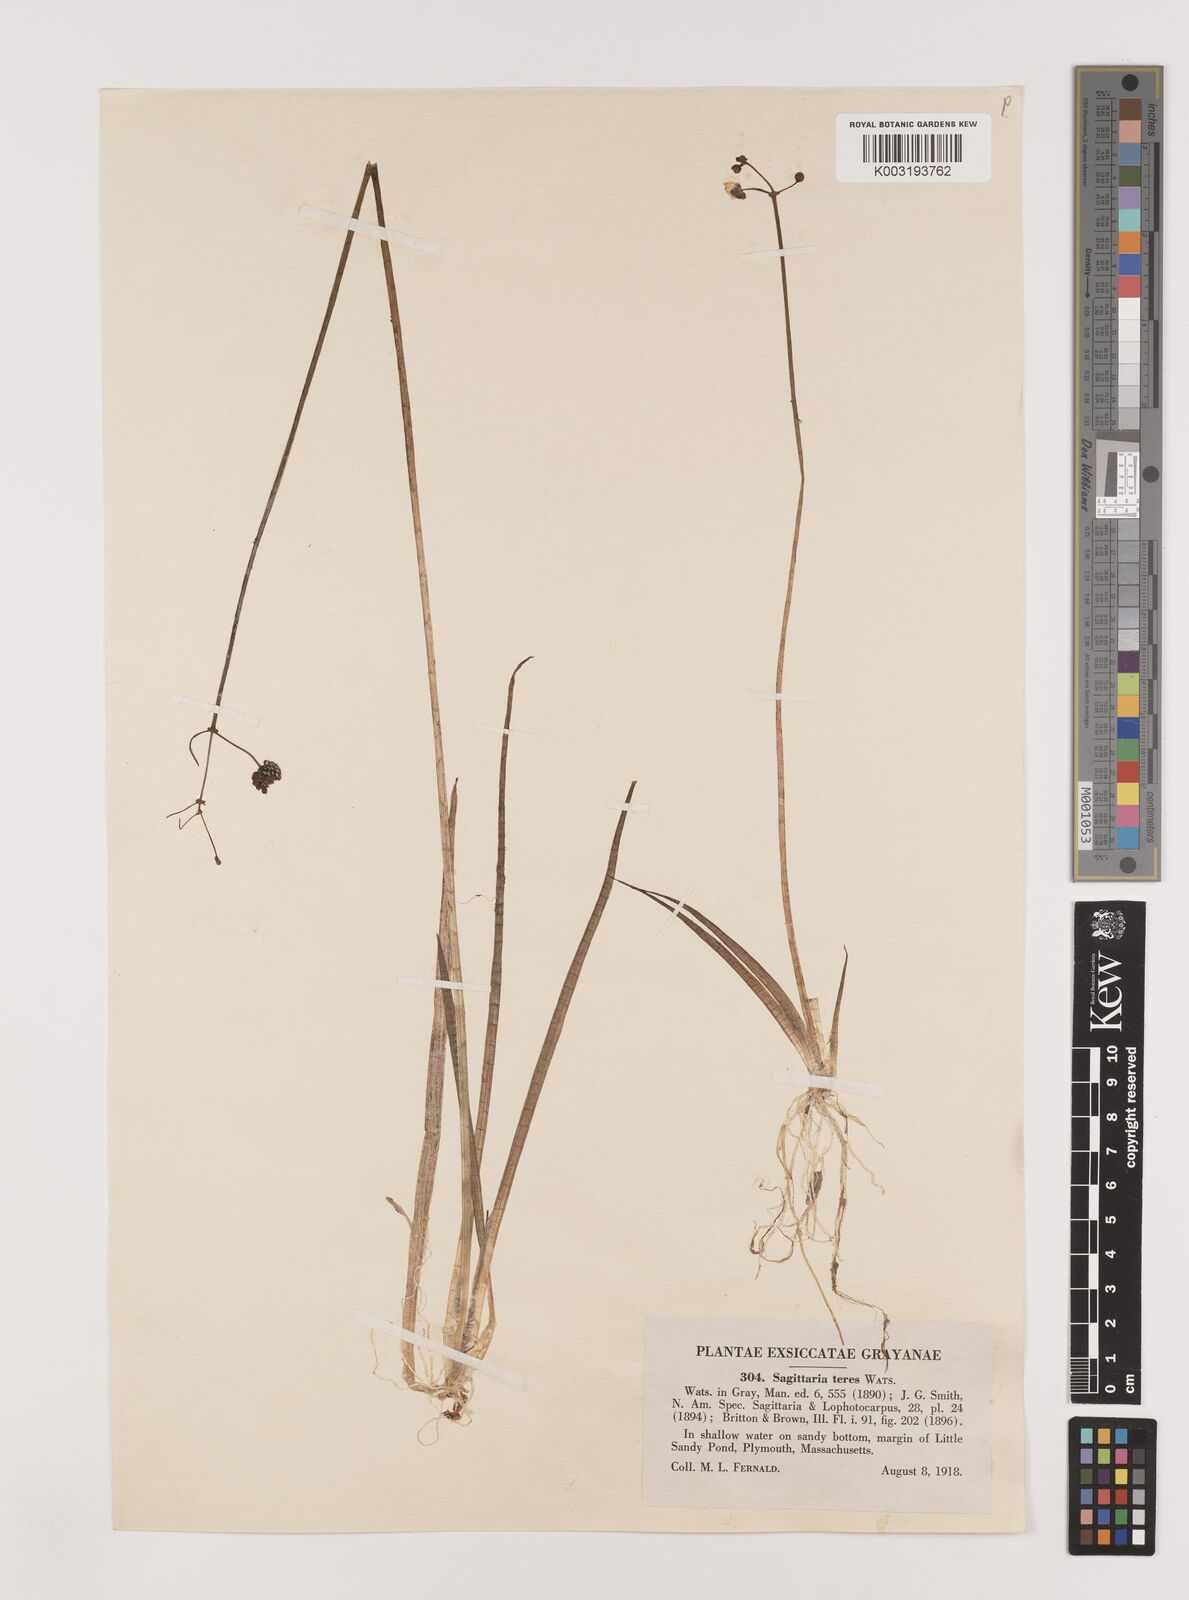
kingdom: Plantae
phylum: Tracheophyta
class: Liliopsida
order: Alismatales
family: Alismataceae
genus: Sagittaria
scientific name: Sagittaria teres
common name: Quill-leaf sagittaria
